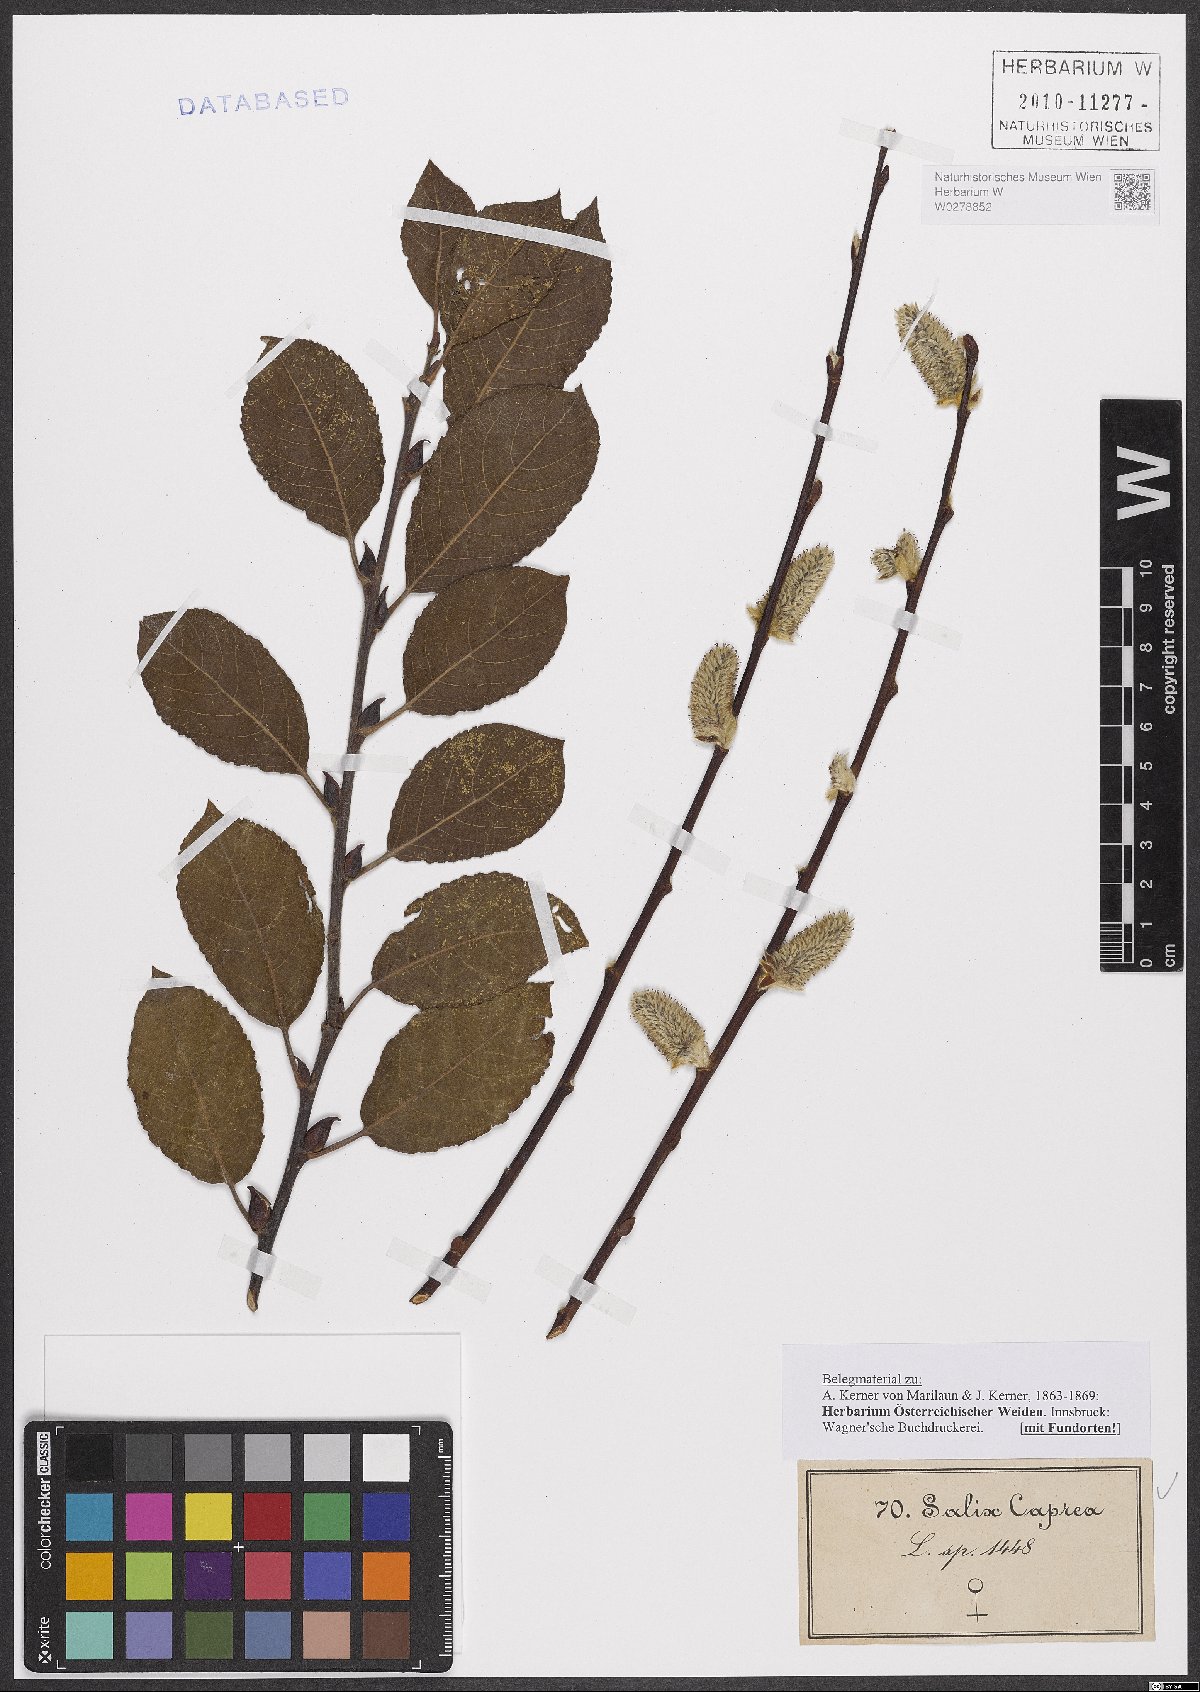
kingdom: Plantae
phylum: Tracheophyta
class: Magnoliopsida
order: Malpighiales
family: Salicaceae
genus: Salix
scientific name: Salix caprea
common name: Goat willow
